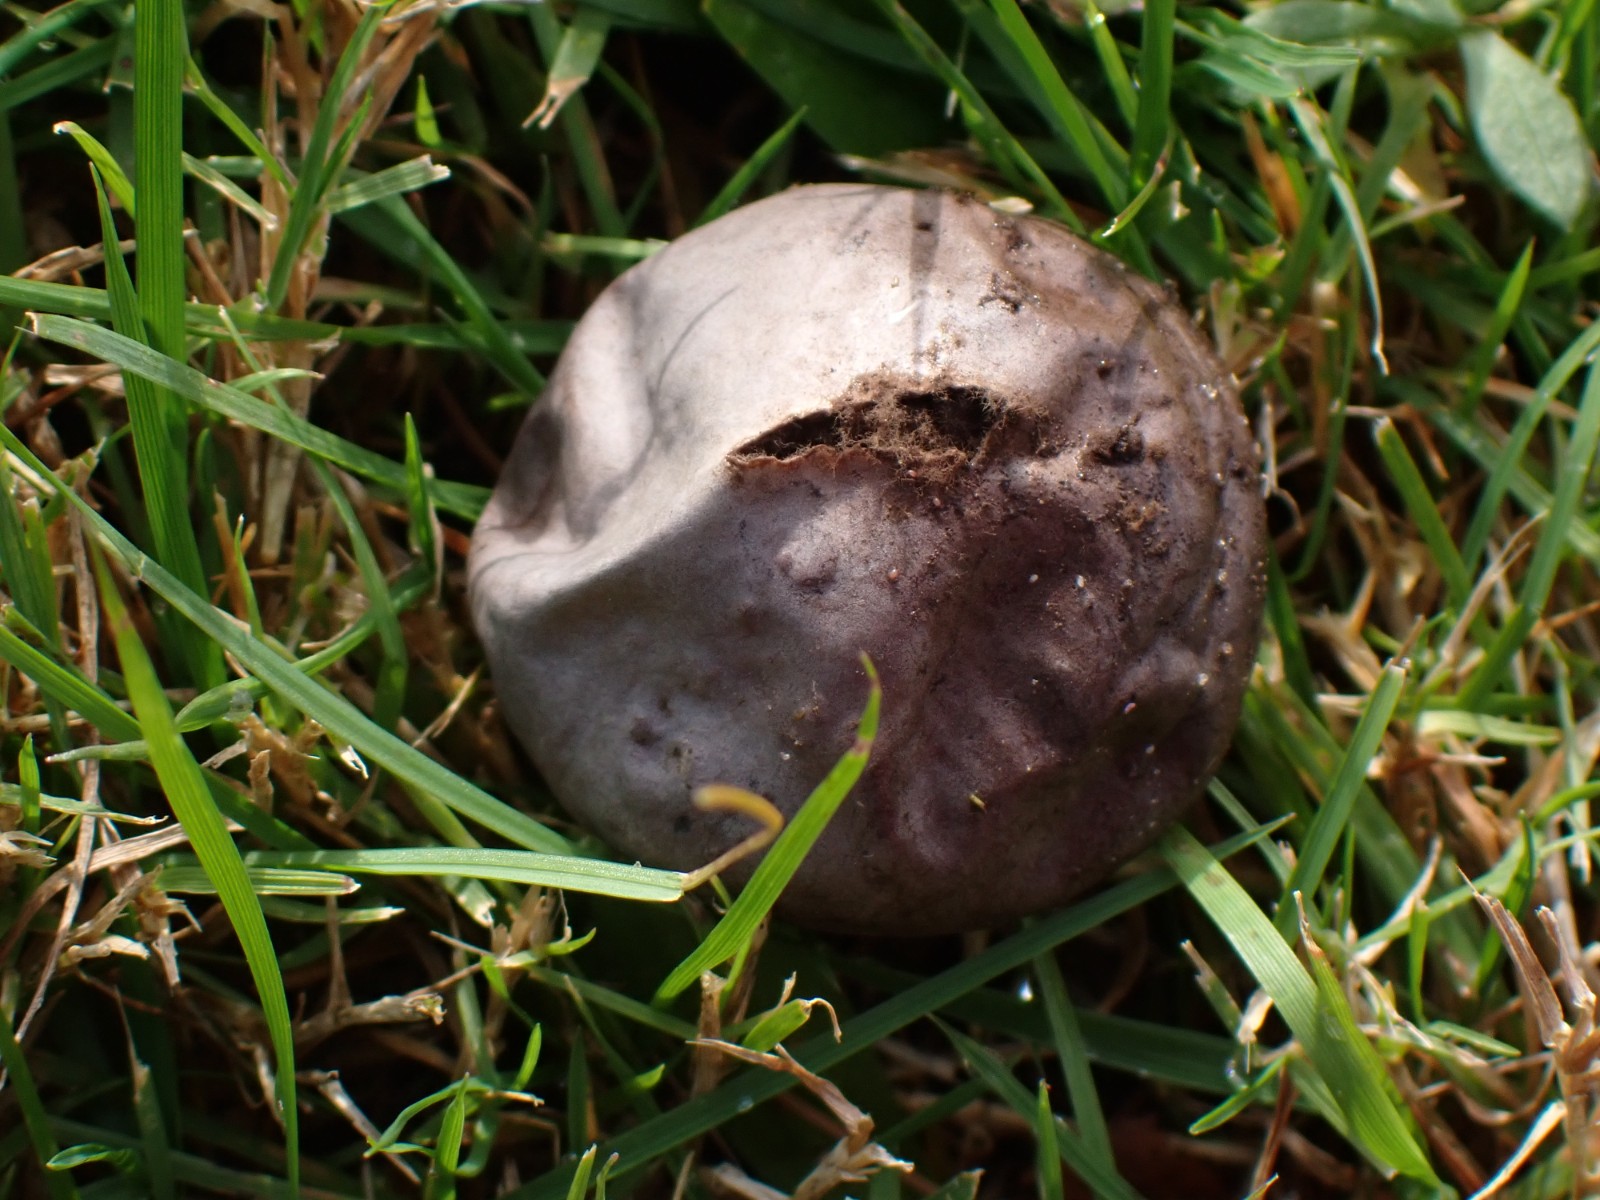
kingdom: Fungi
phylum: Basidiomycota
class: Agaricomycetes
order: Agaricales
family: Lycoperdaceae
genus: Bovista
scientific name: Bovista nigrescens
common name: sortagtig bovist
